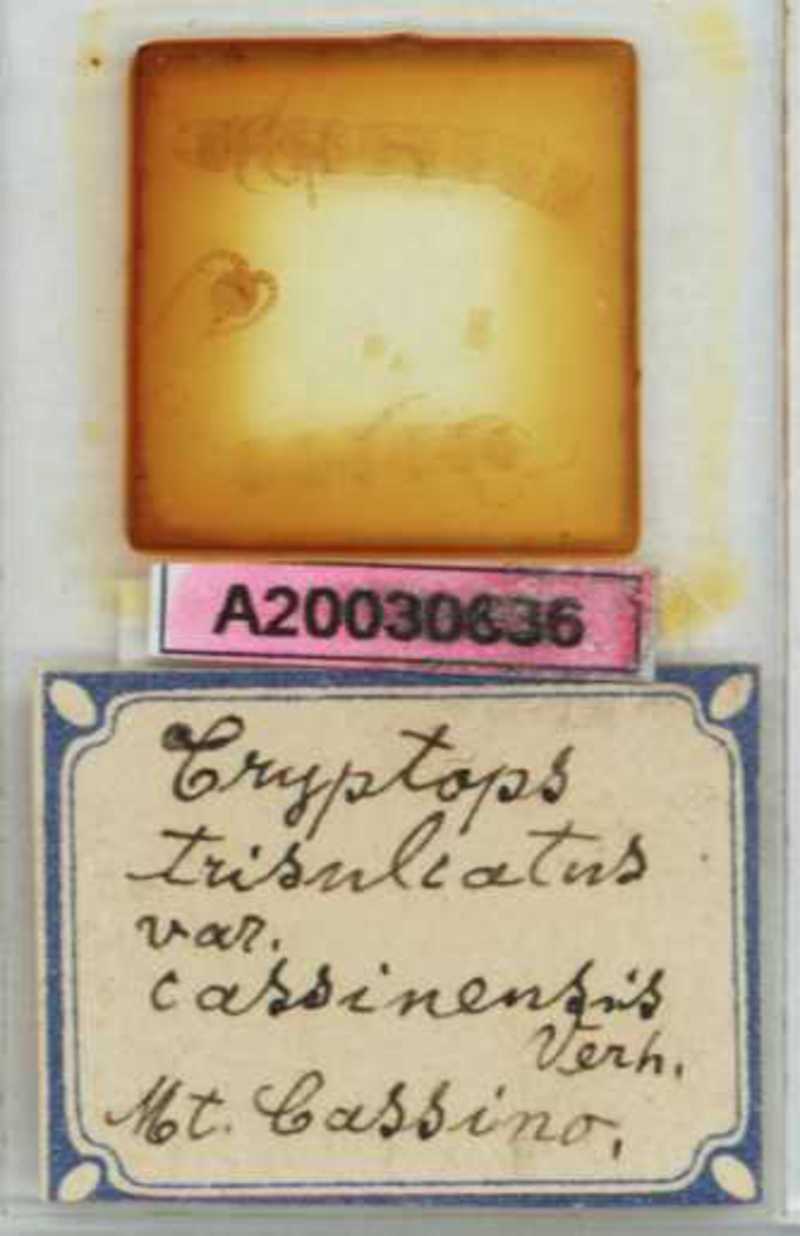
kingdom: Animalia
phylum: Arthropoda
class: Chilopoda
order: Scolopendromorpha
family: Cryptopidae
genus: Cryptops
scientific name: Cryptops trisulcatus
